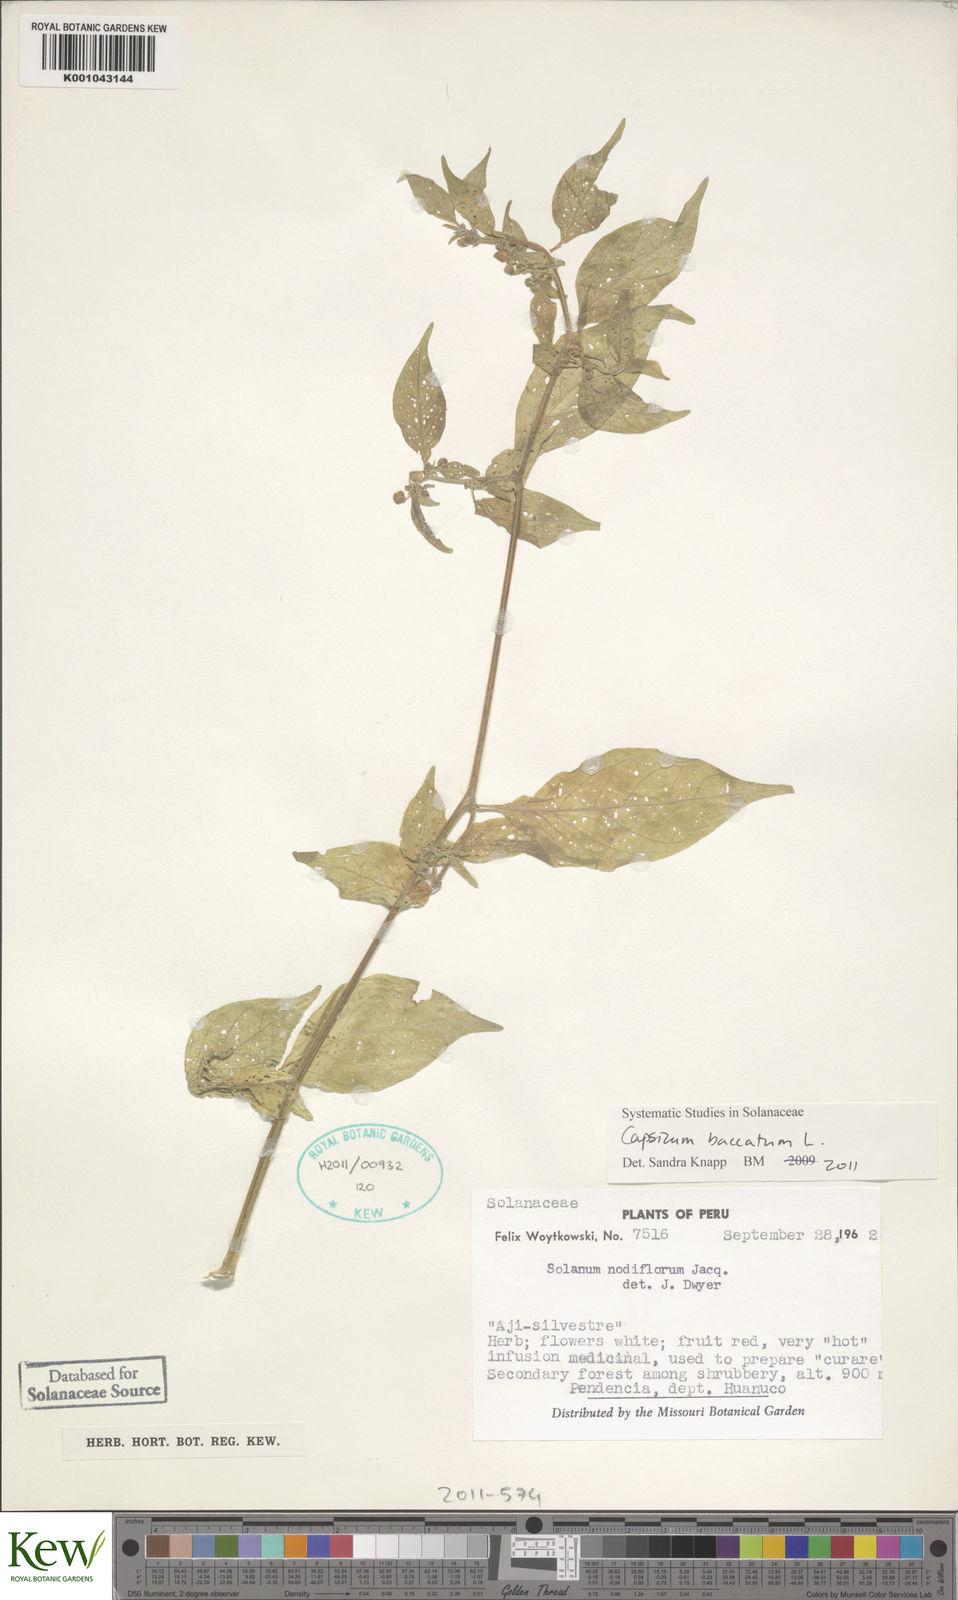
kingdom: Plantae
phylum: Tracheophyta
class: Magnoliopsida
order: Solanales
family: Solanaceae
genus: Capsicum
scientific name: Capsicum baccatum
